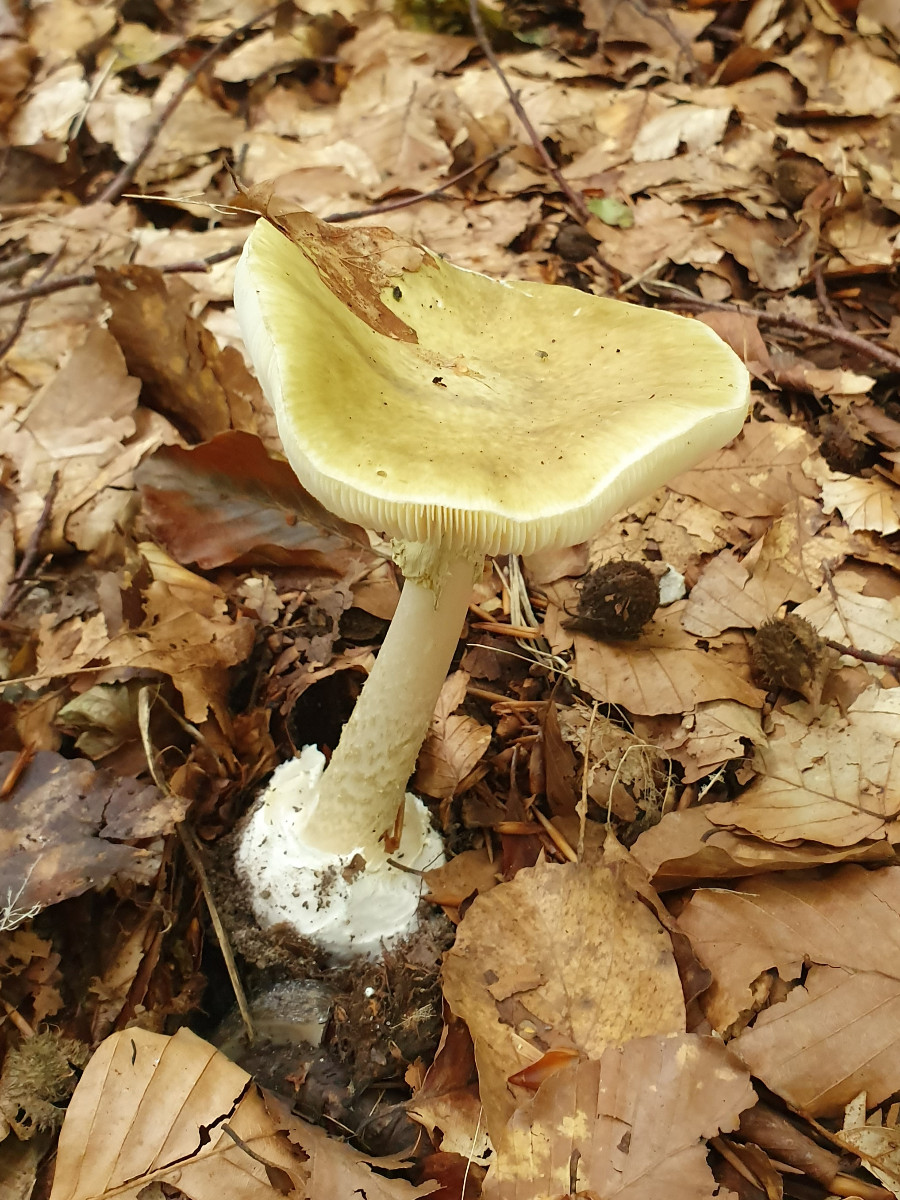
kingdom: Fungi
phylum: Basidiomycota
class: Agaricomycetes
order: Agaricales
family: Amanitaceae
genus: Amanita
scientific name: Amanita phalloides
